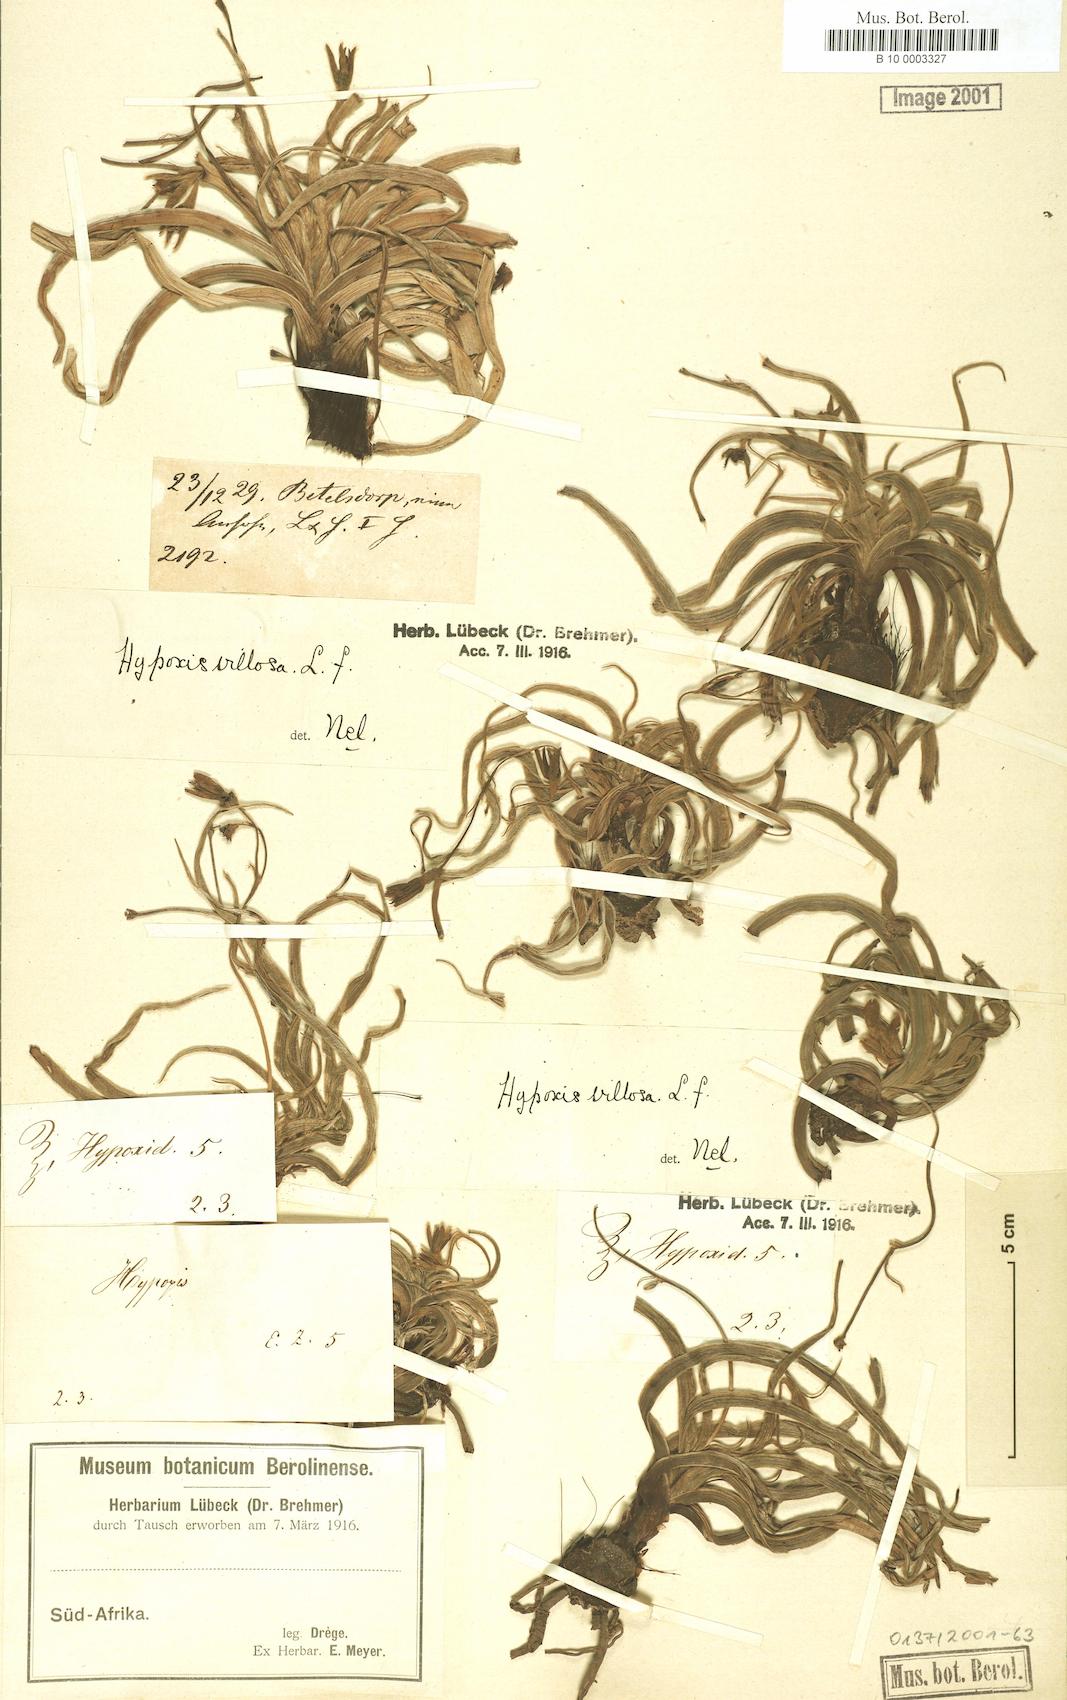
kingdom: Plantae
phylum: Tracheophyta
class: Liliopsida
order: Asparagales
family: Hypoxidaceae
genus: Hypoxis
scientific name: Hypoxis villosa
